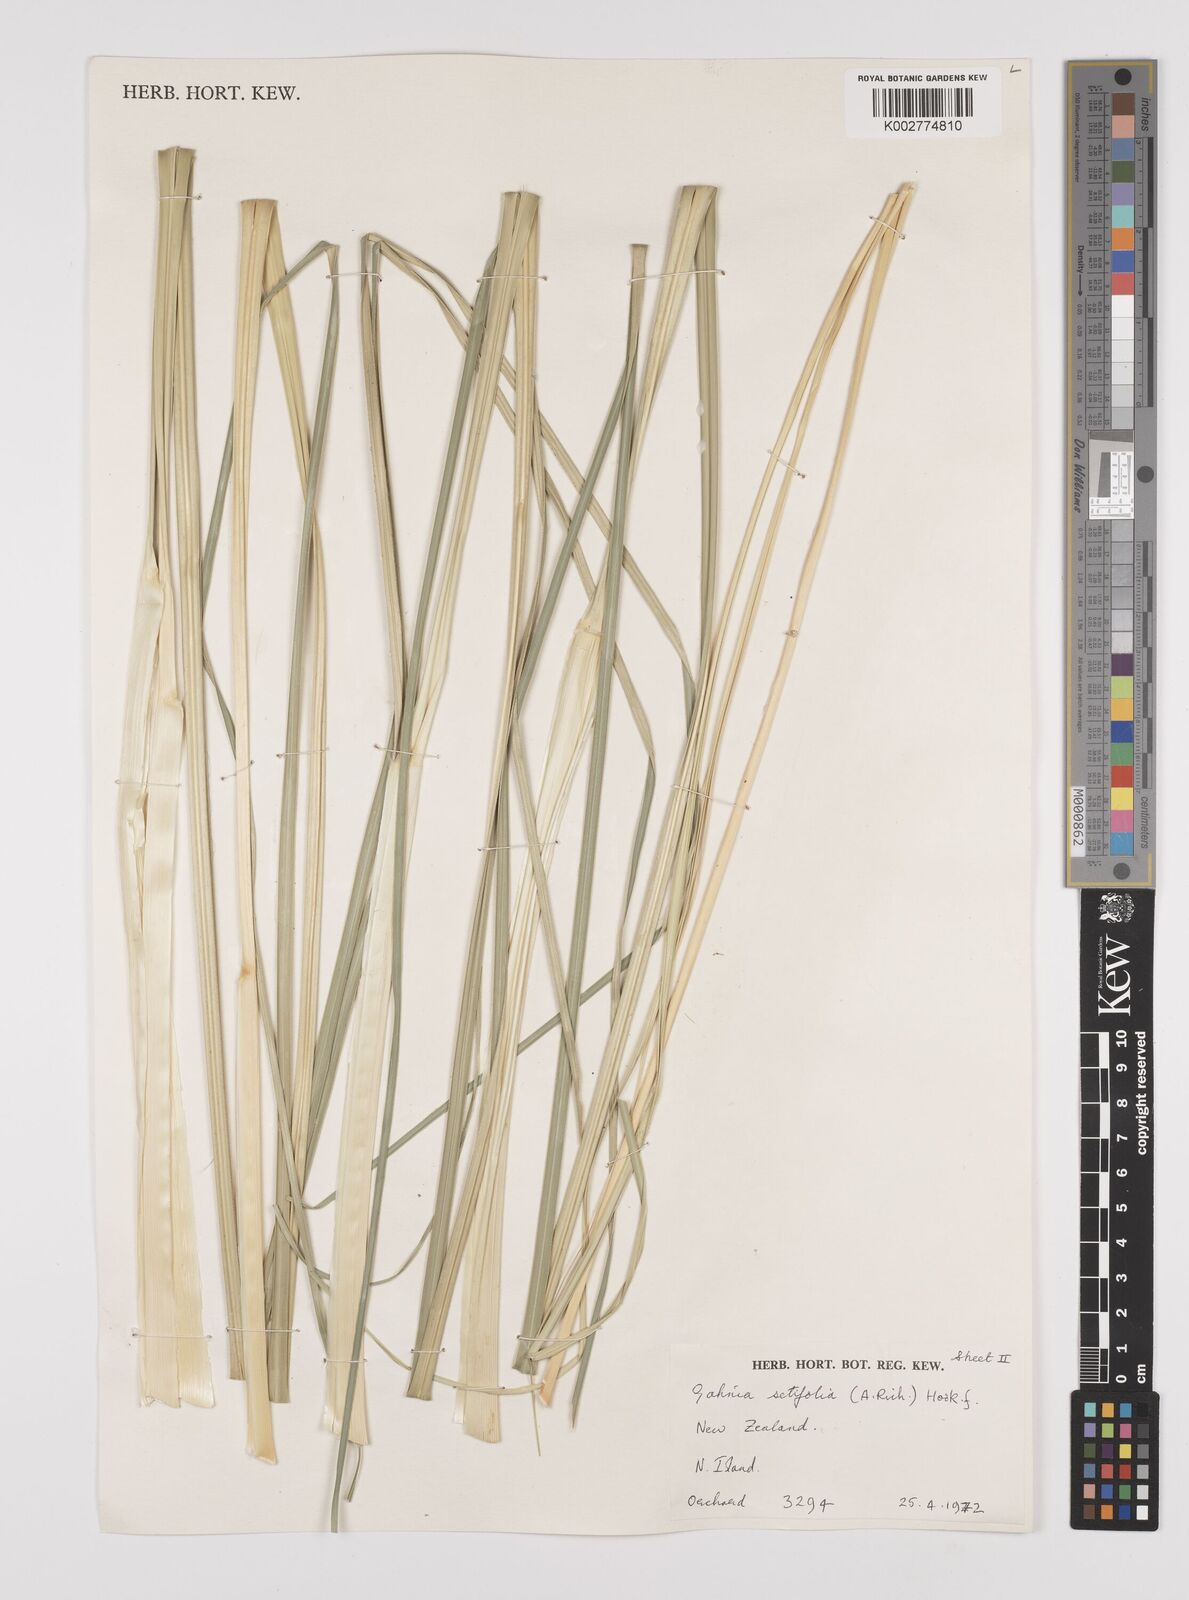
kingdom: Plantae
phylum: Tracheophyta
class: Liliopsida
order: Poales
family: Cyperaceae
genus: Gahnia
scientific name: Gahnia setifolia
